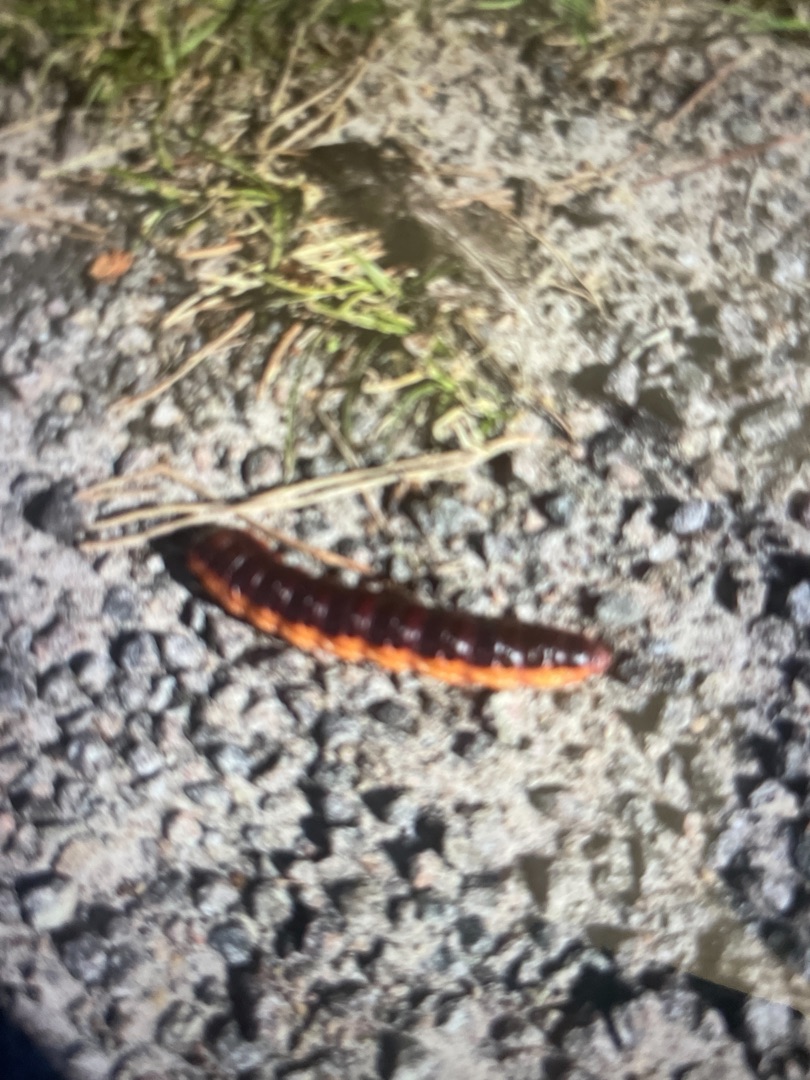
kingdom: Animalia
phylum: Arthropoda
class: Insecta
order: Lepidoptera
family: Cossidae
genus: Cossus
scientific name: Cossus cossus
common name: Pileborer
